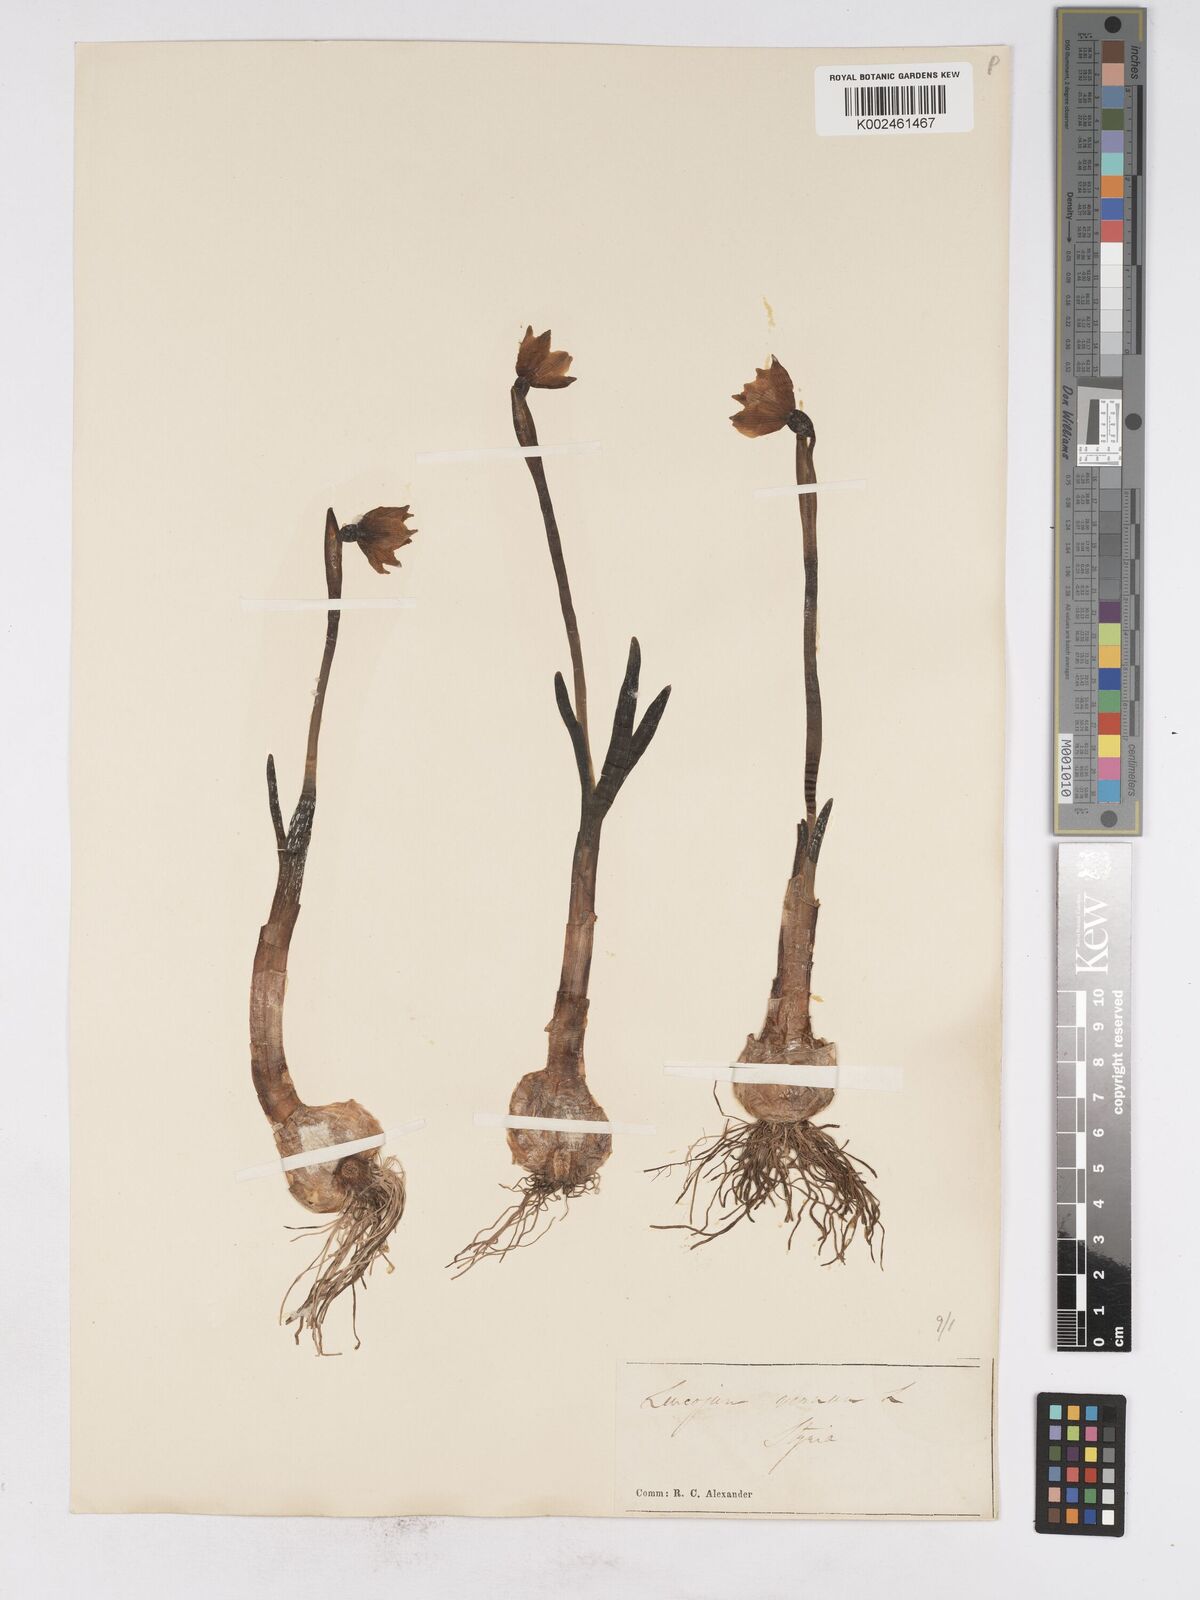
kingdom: Plantae
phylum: Tracheophyta
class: Liliopsida
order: Asparagales
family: Amaryllidaceae
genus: Leucojum
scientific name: Leucojum vernum
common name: Spring snowflake
